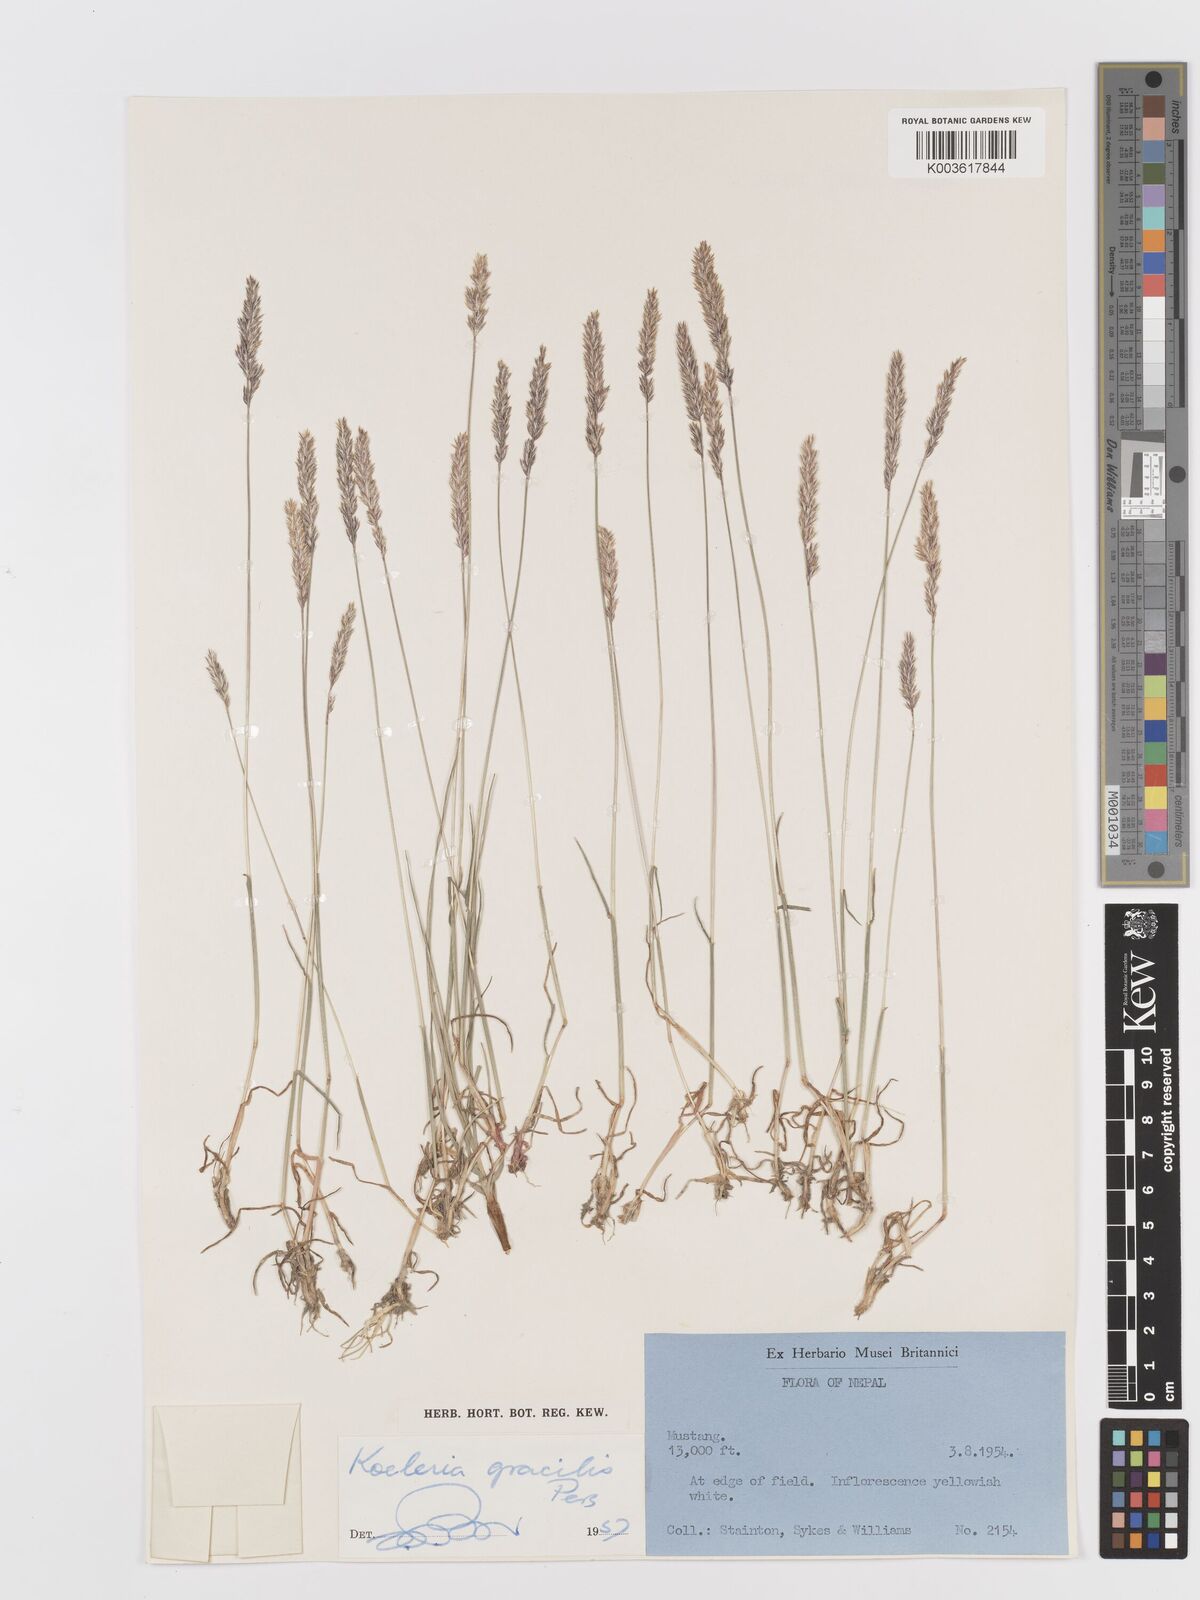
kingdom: Plantae
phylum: Tracheophyta
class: Liliopsida
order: Poales
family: Poaceae
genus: Koeleria
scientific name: Koeleria macrantha
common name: Crested hair-grass
